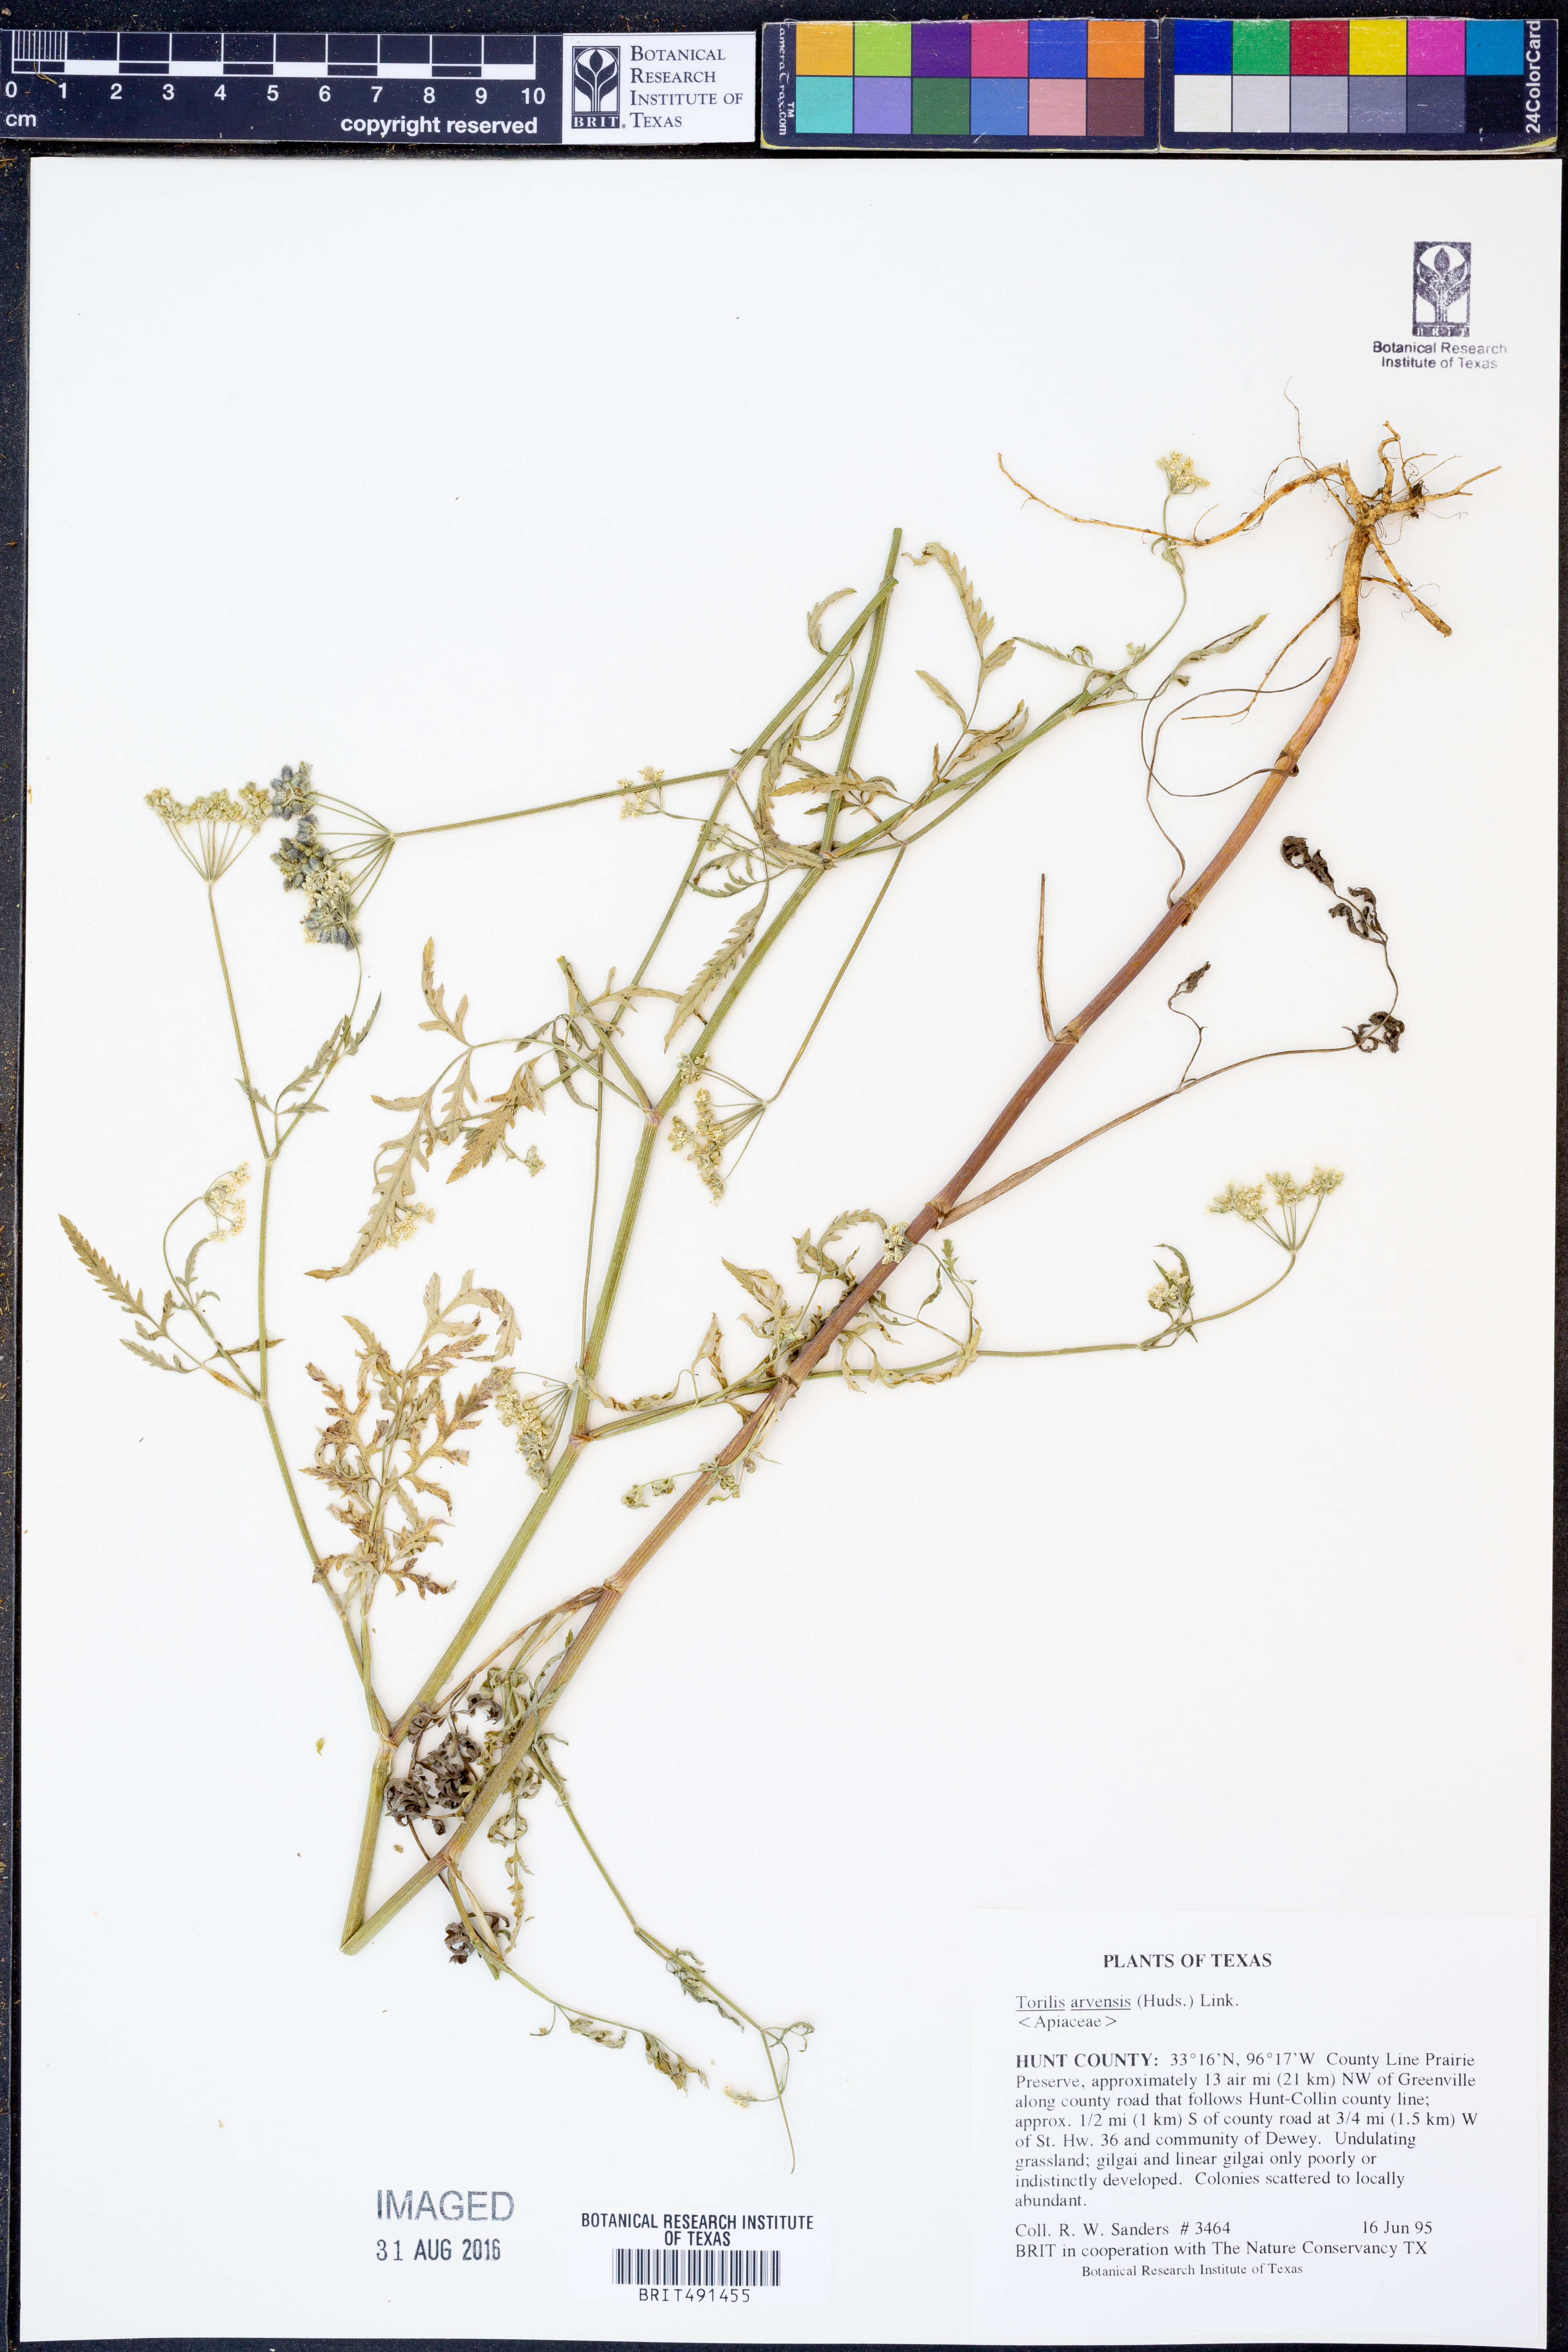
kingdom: Plantae
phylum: Tracheophyta
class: Magnoliopsida
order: Apiales
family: Apiaceae
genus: Torilis
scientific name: Torilis arvensis
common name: Spreading hedge-parsley
